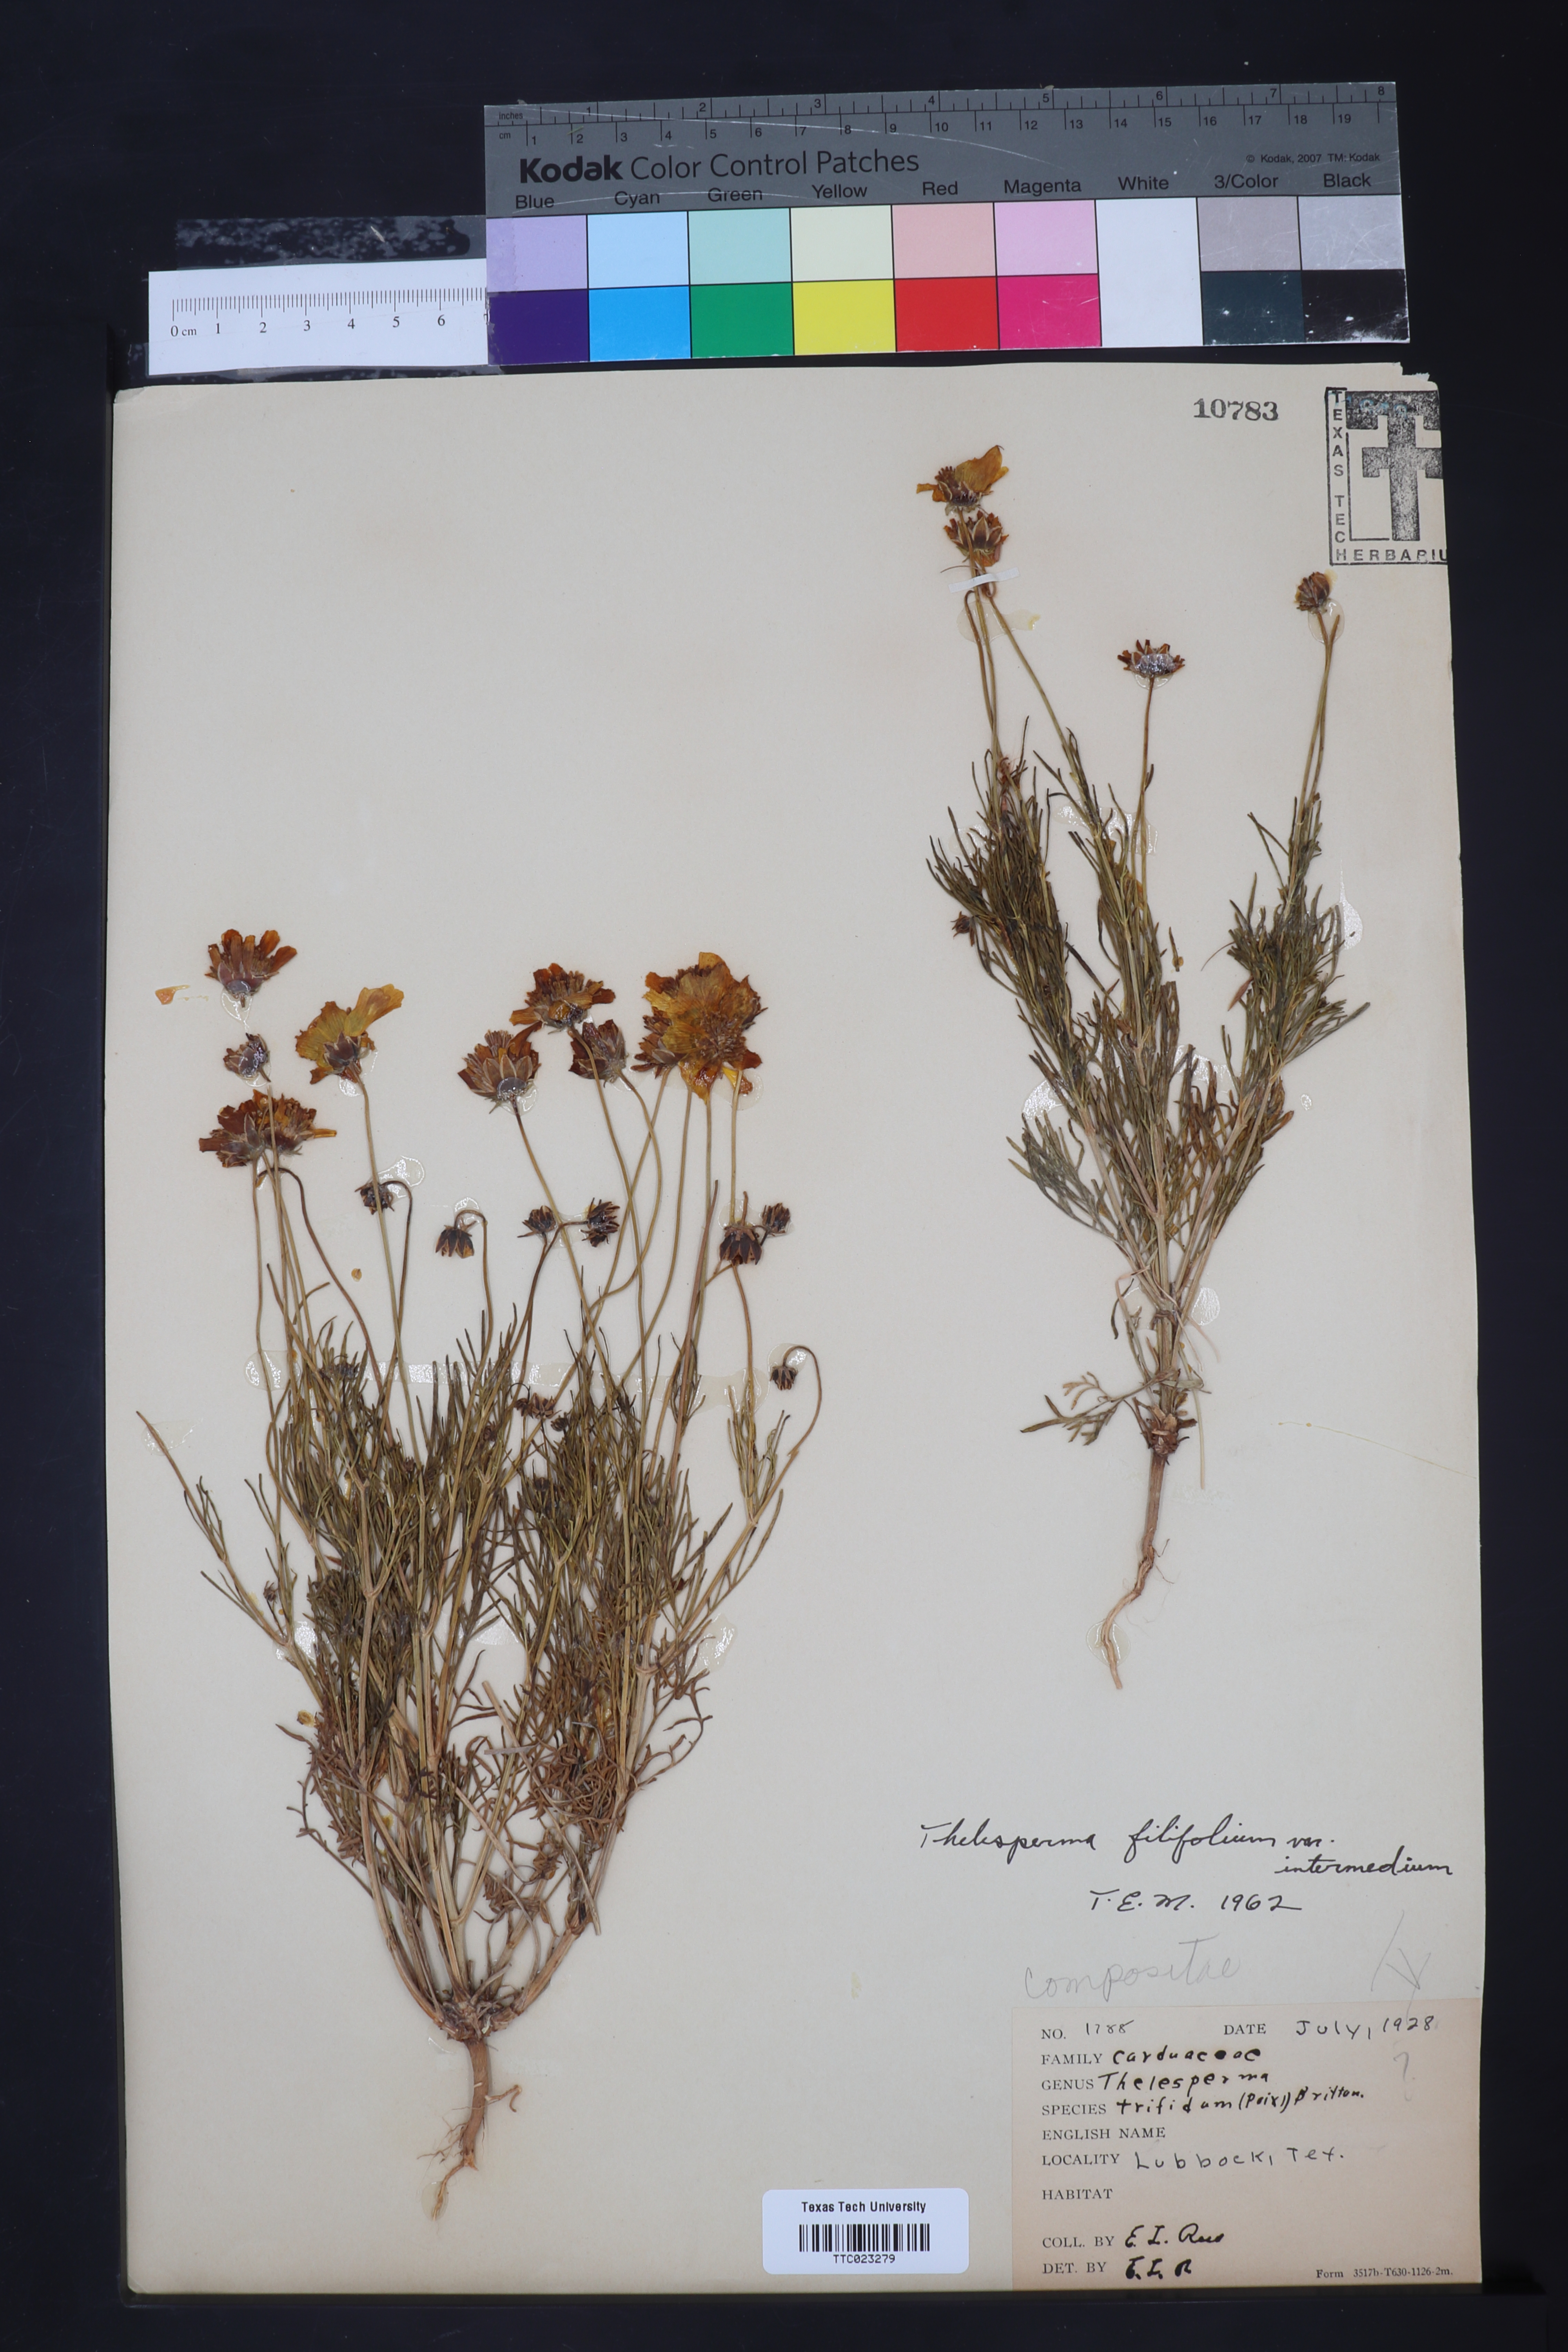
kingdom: Plantae
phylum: Tracheophyta
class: Magnoliopsida
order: Asterales
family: Asteraceae
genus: Thelesperma
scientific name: Thelesperma filifolium
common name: Stiff greenthread
